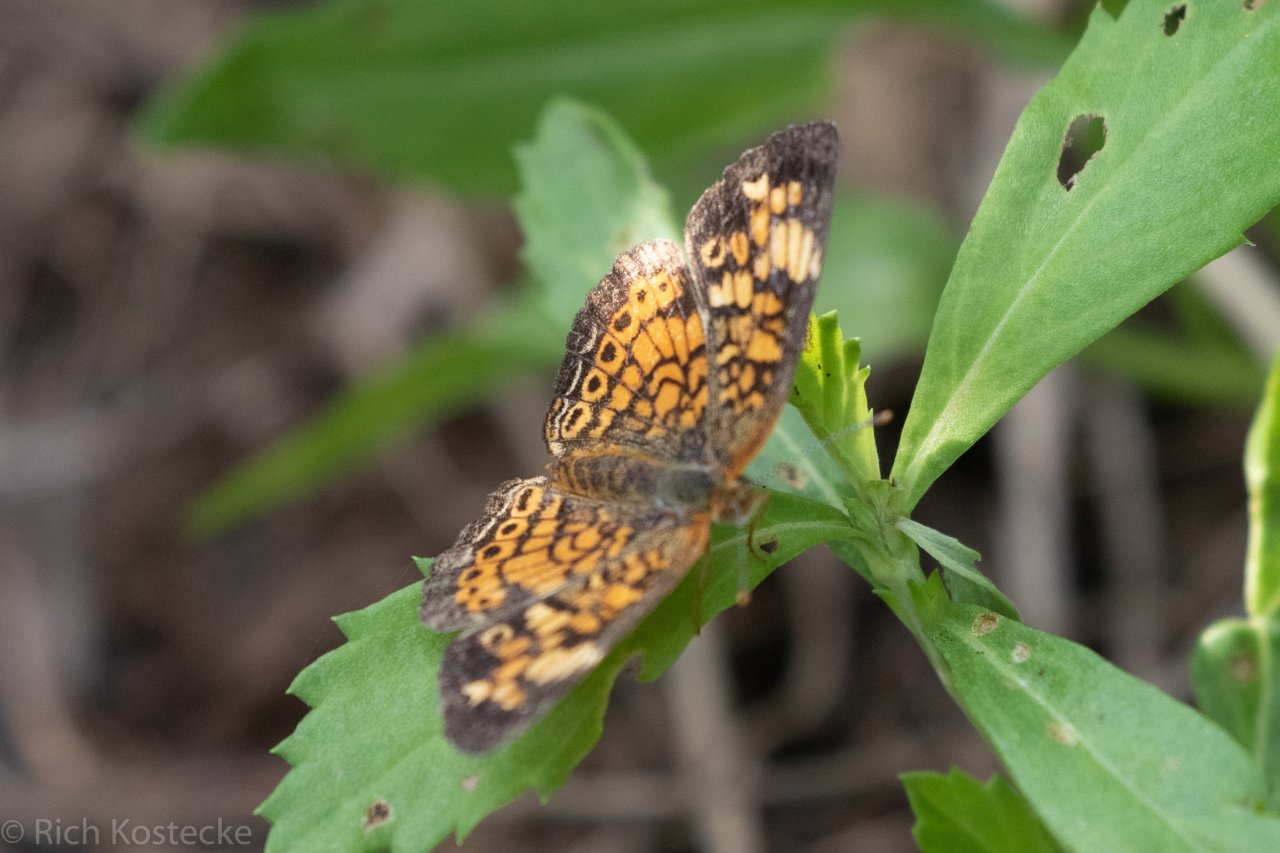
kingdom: Animalia
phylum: Arthropoda
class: Insecta
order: Lepidoptera
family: Nymphalidae
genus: Phyciodes
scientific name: Phyciodes tharos
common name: Pearl Crescent
